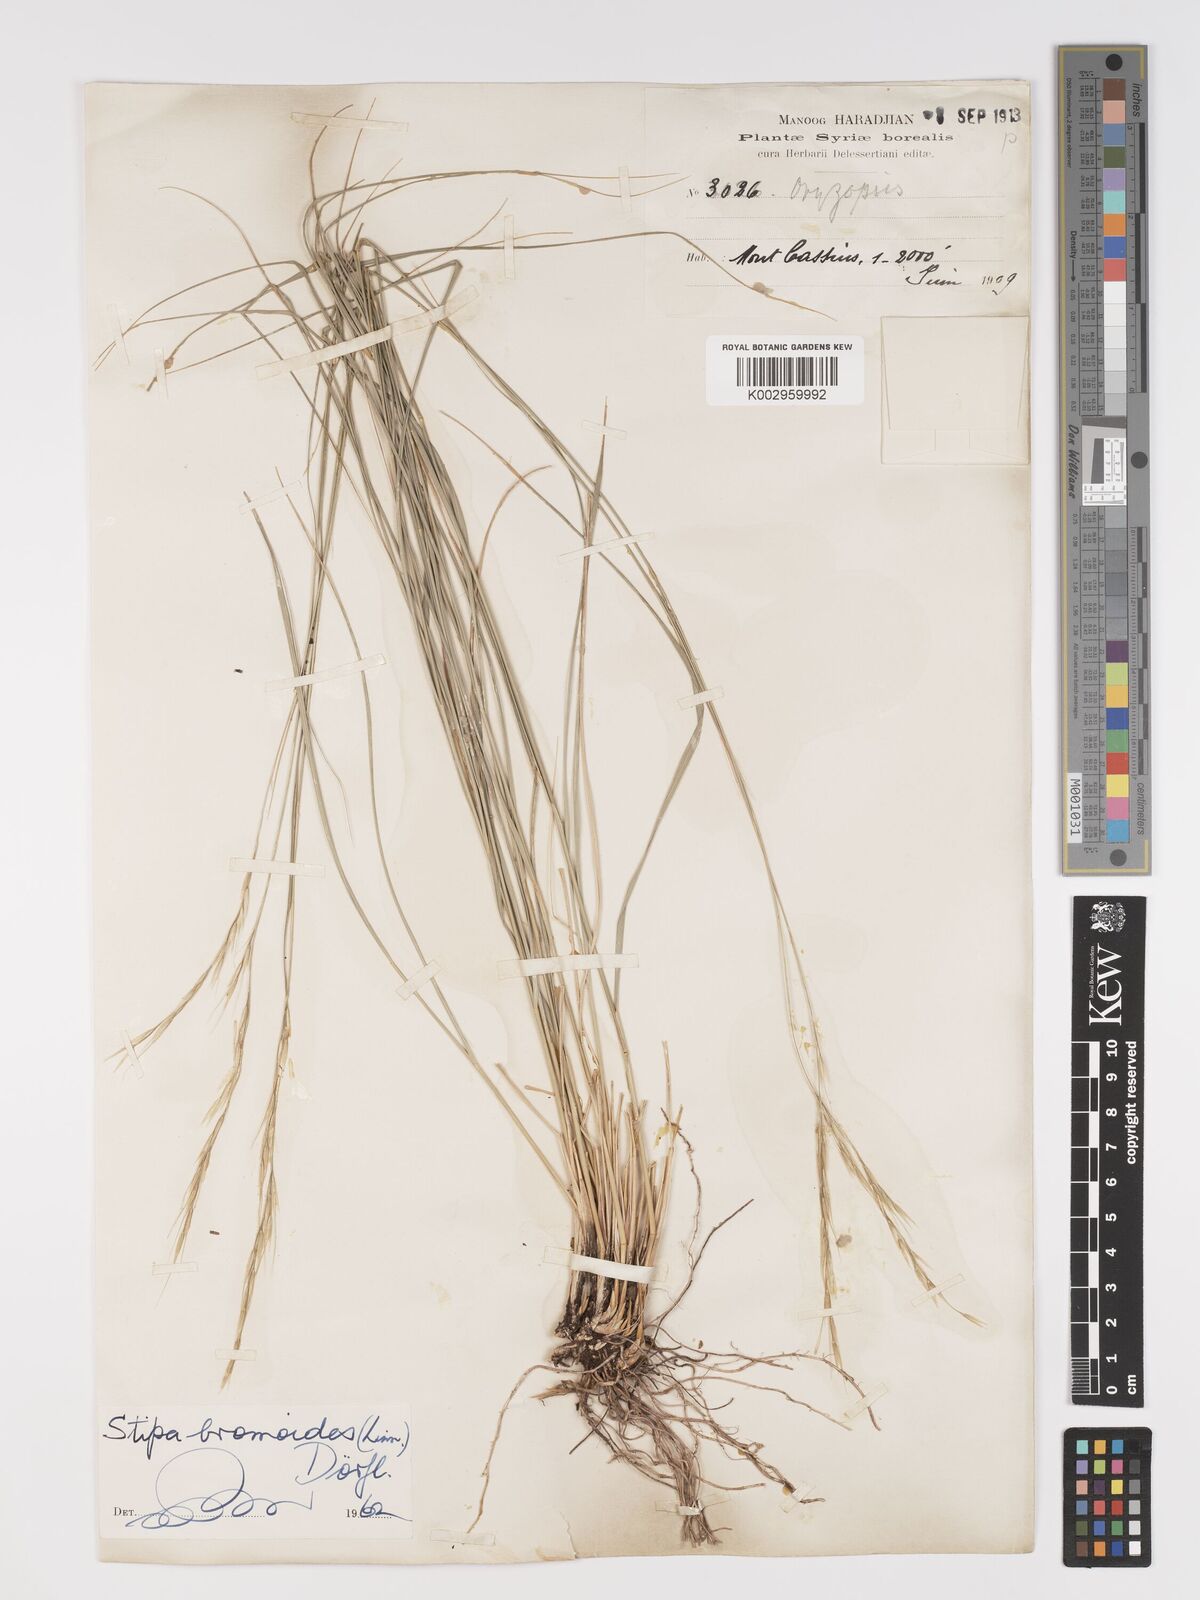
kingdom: Plantae
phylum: Tracheophyta
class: Liliopsida
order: Poales
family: Poaceae
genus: Achnatherum
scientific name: Achnatherum bromoides
